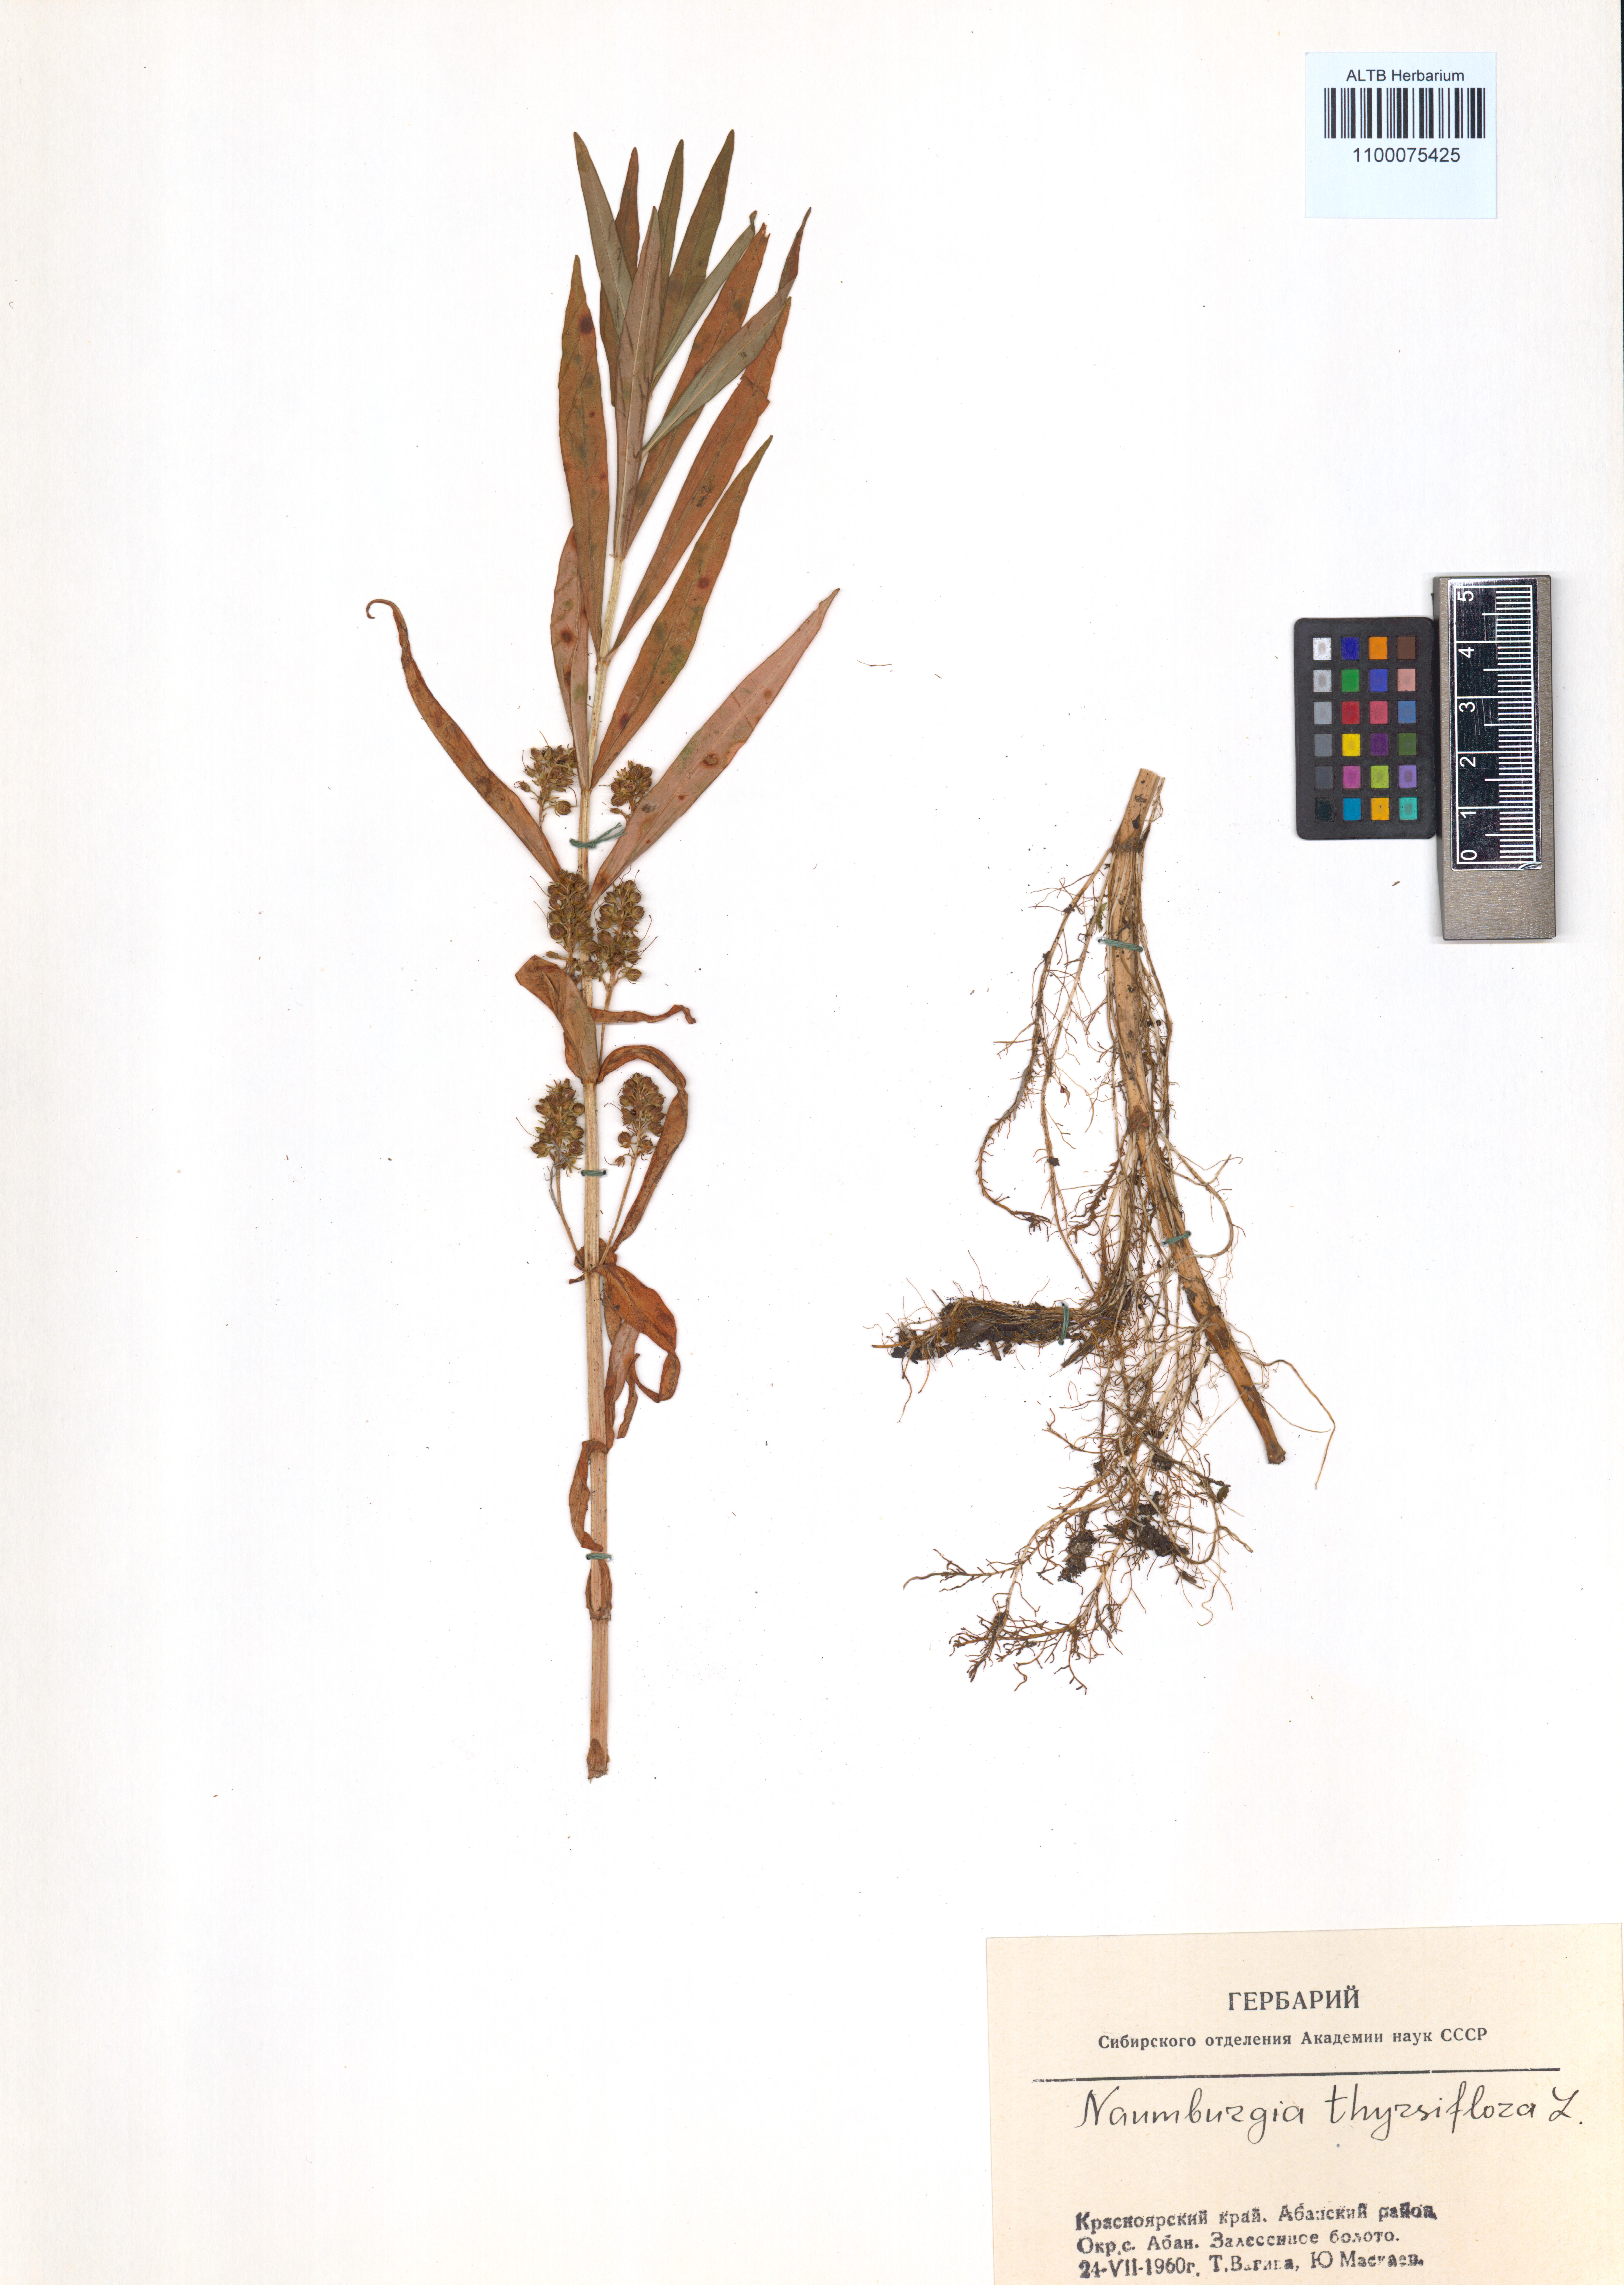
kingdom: Plantae
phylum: Tracheophyta
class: Magnoliopsida
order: Ericales
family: Primulaceae
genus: Lysimachia
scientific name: Lysimachia thyrsiflora
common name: Tufted loosestrife
